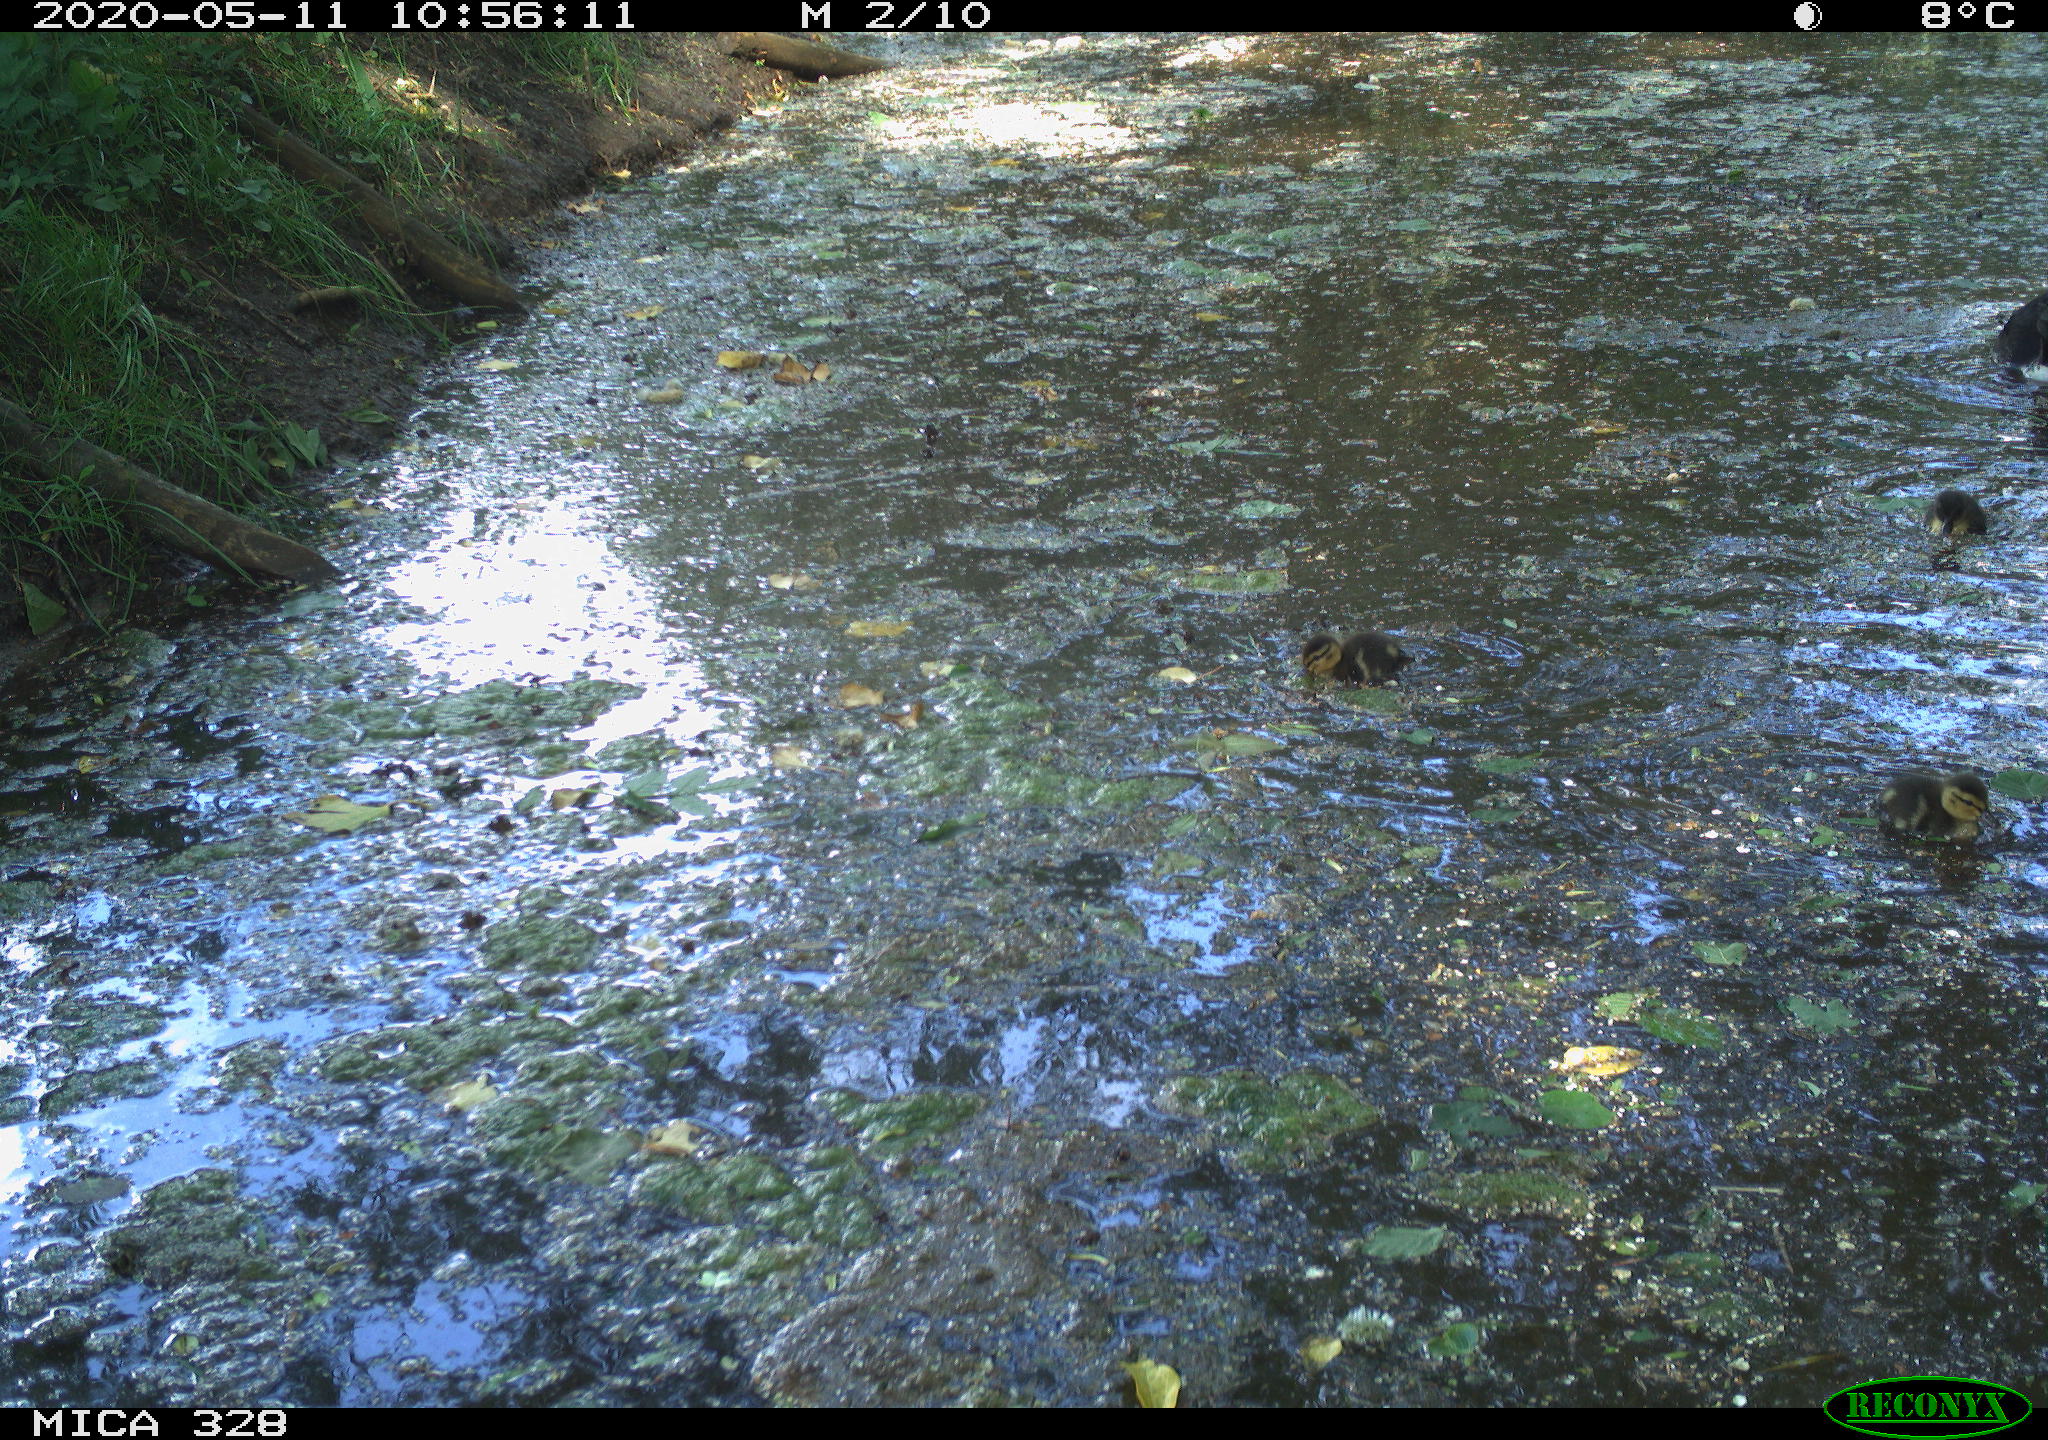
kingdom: Animalia
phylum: Chordata
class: Aves
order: Anseriformes
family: Anatidae
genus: Anas
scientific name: Anas platyrhynchos
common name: Mallard
